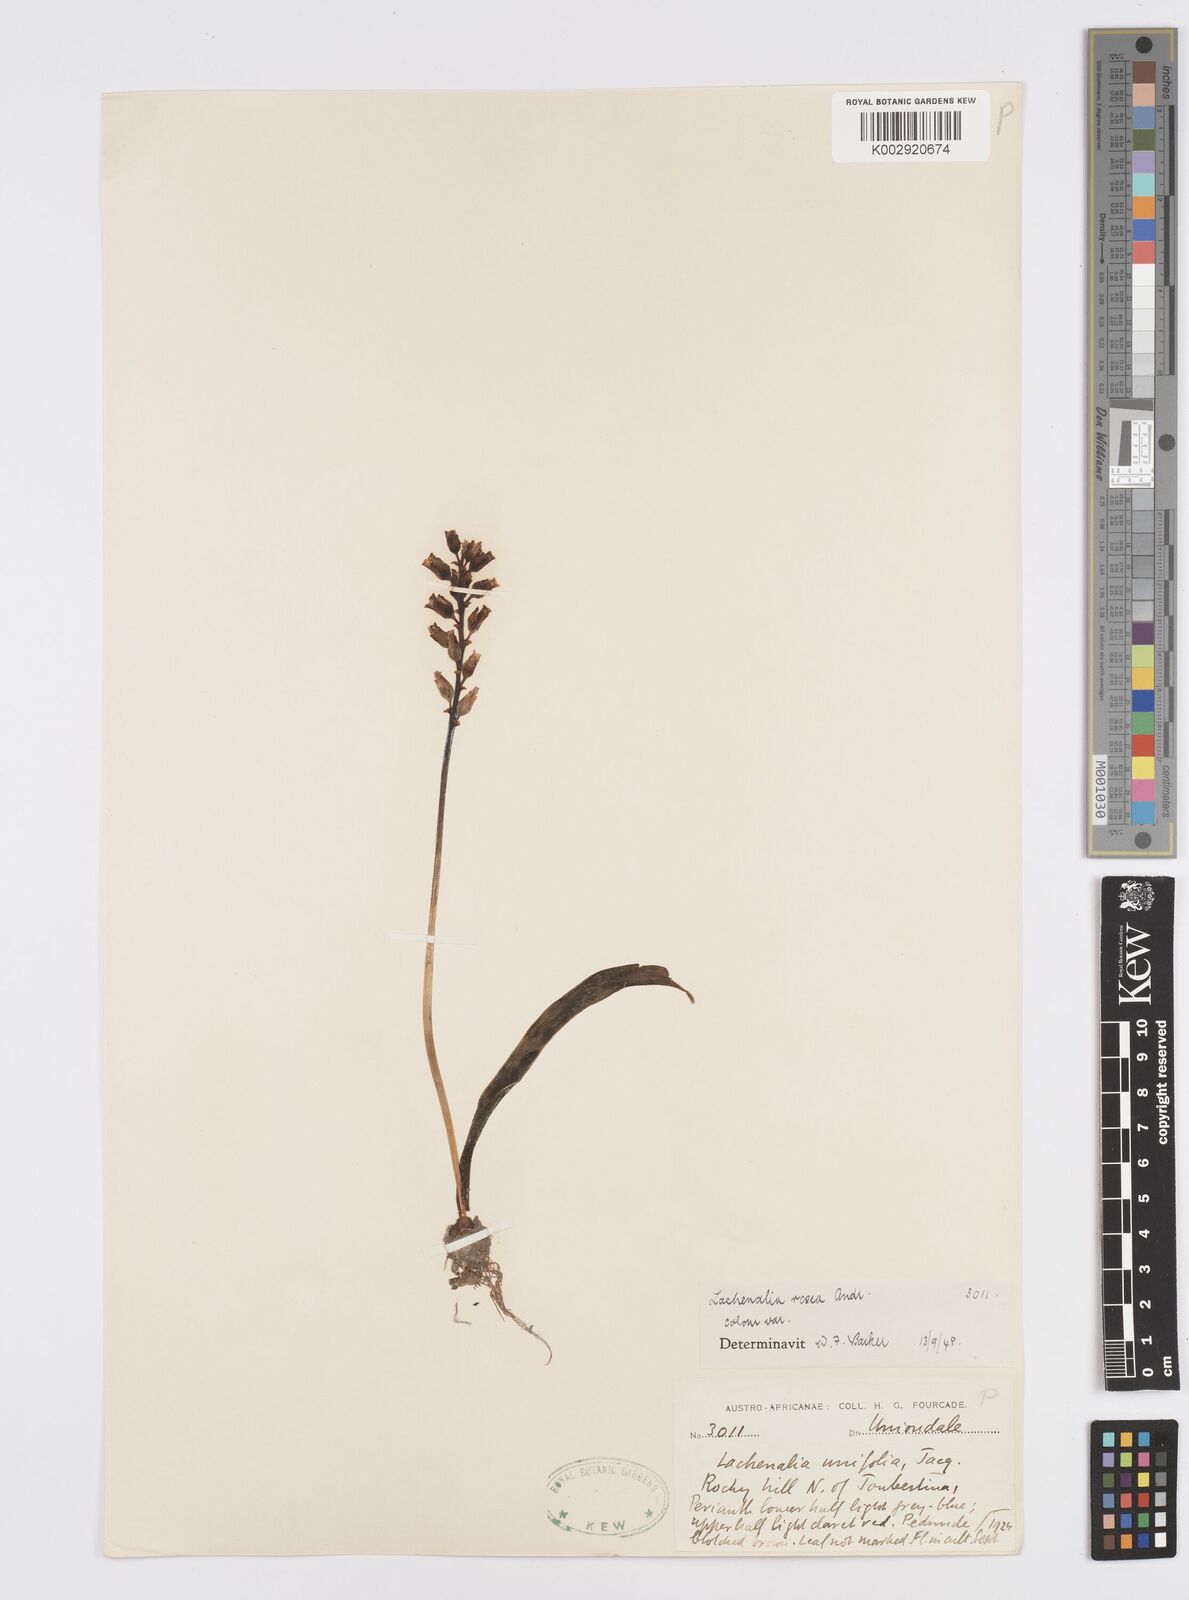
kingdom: Plantae
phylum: Tracheophyta
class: Liliopsida
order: Asparagales
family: Asparagaceae
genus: Lachenalia
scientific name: Lachenalia rosea
